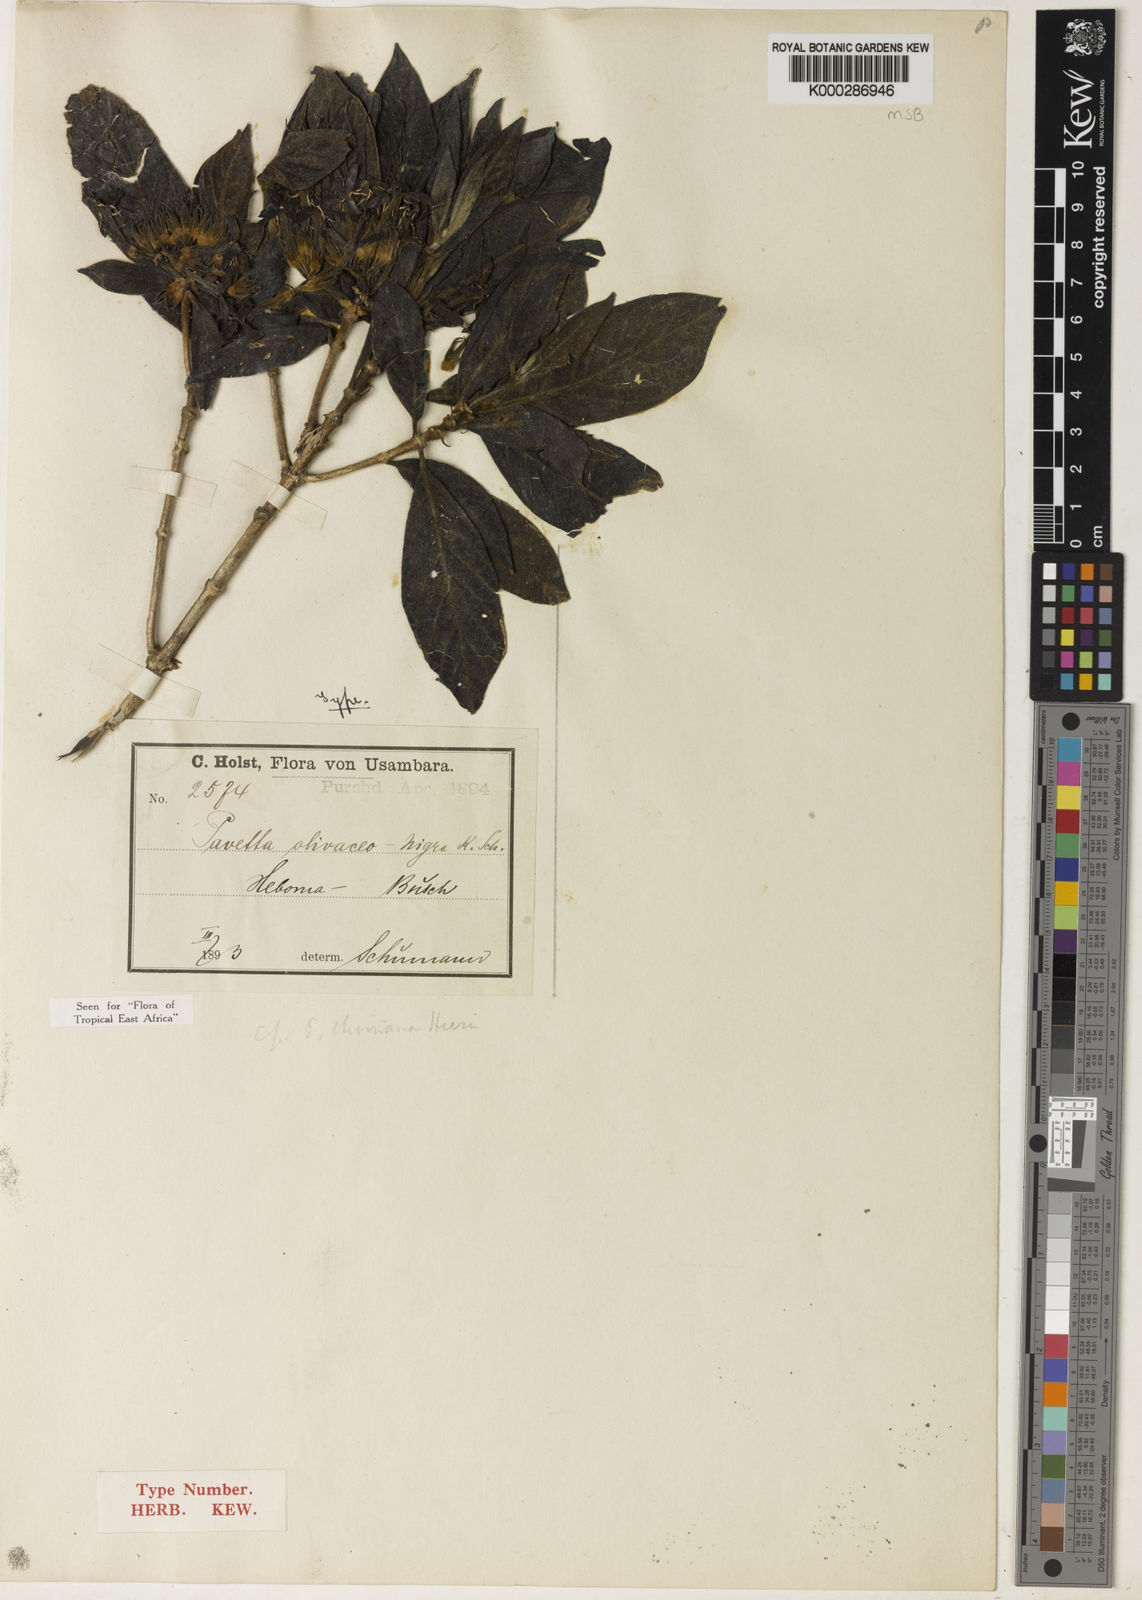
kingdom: Plantae
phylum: Tracheophyta
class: Magnoliopsida
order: Gentianales
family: Rubiaceae
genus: Pavetta
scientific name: Pavetta olivaceonigra
